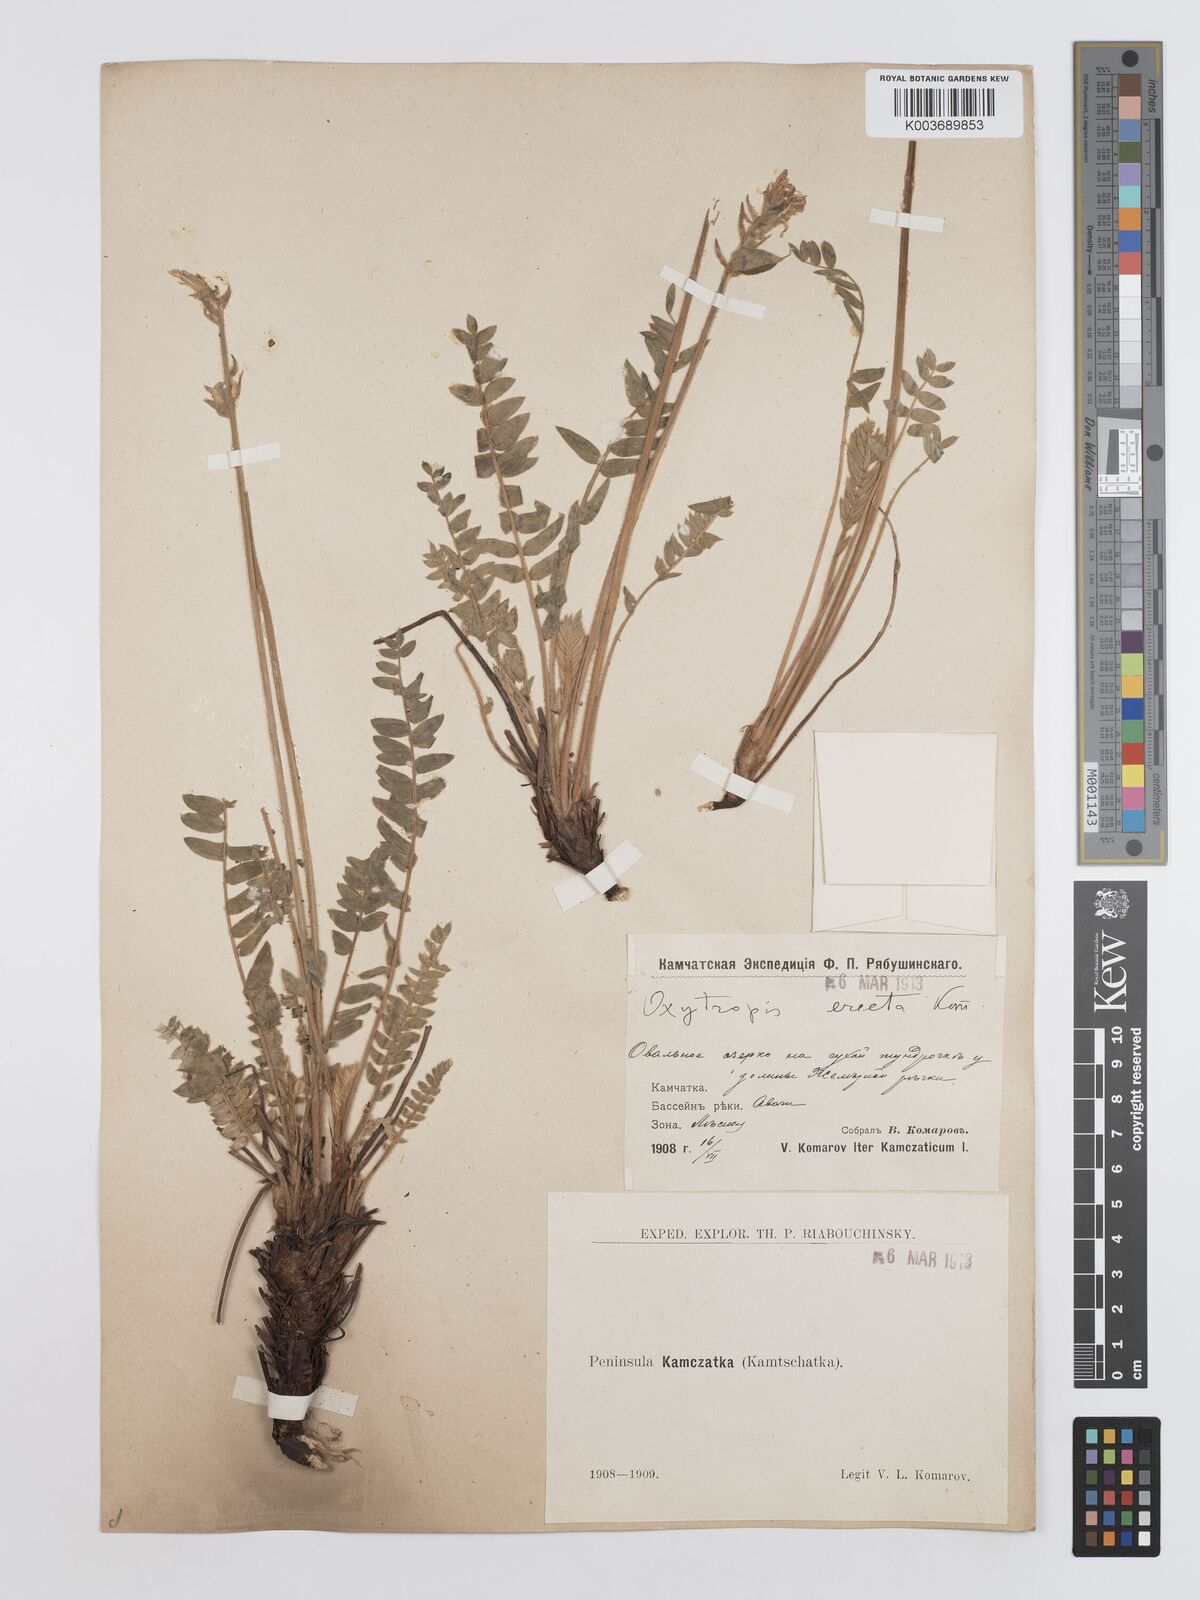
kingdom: Plantae
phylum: Tracheophyta
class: Magnoliopsida
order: Fabales
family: Fabaceae
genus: Oxytropis
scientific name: Oxytropis adamsiana
